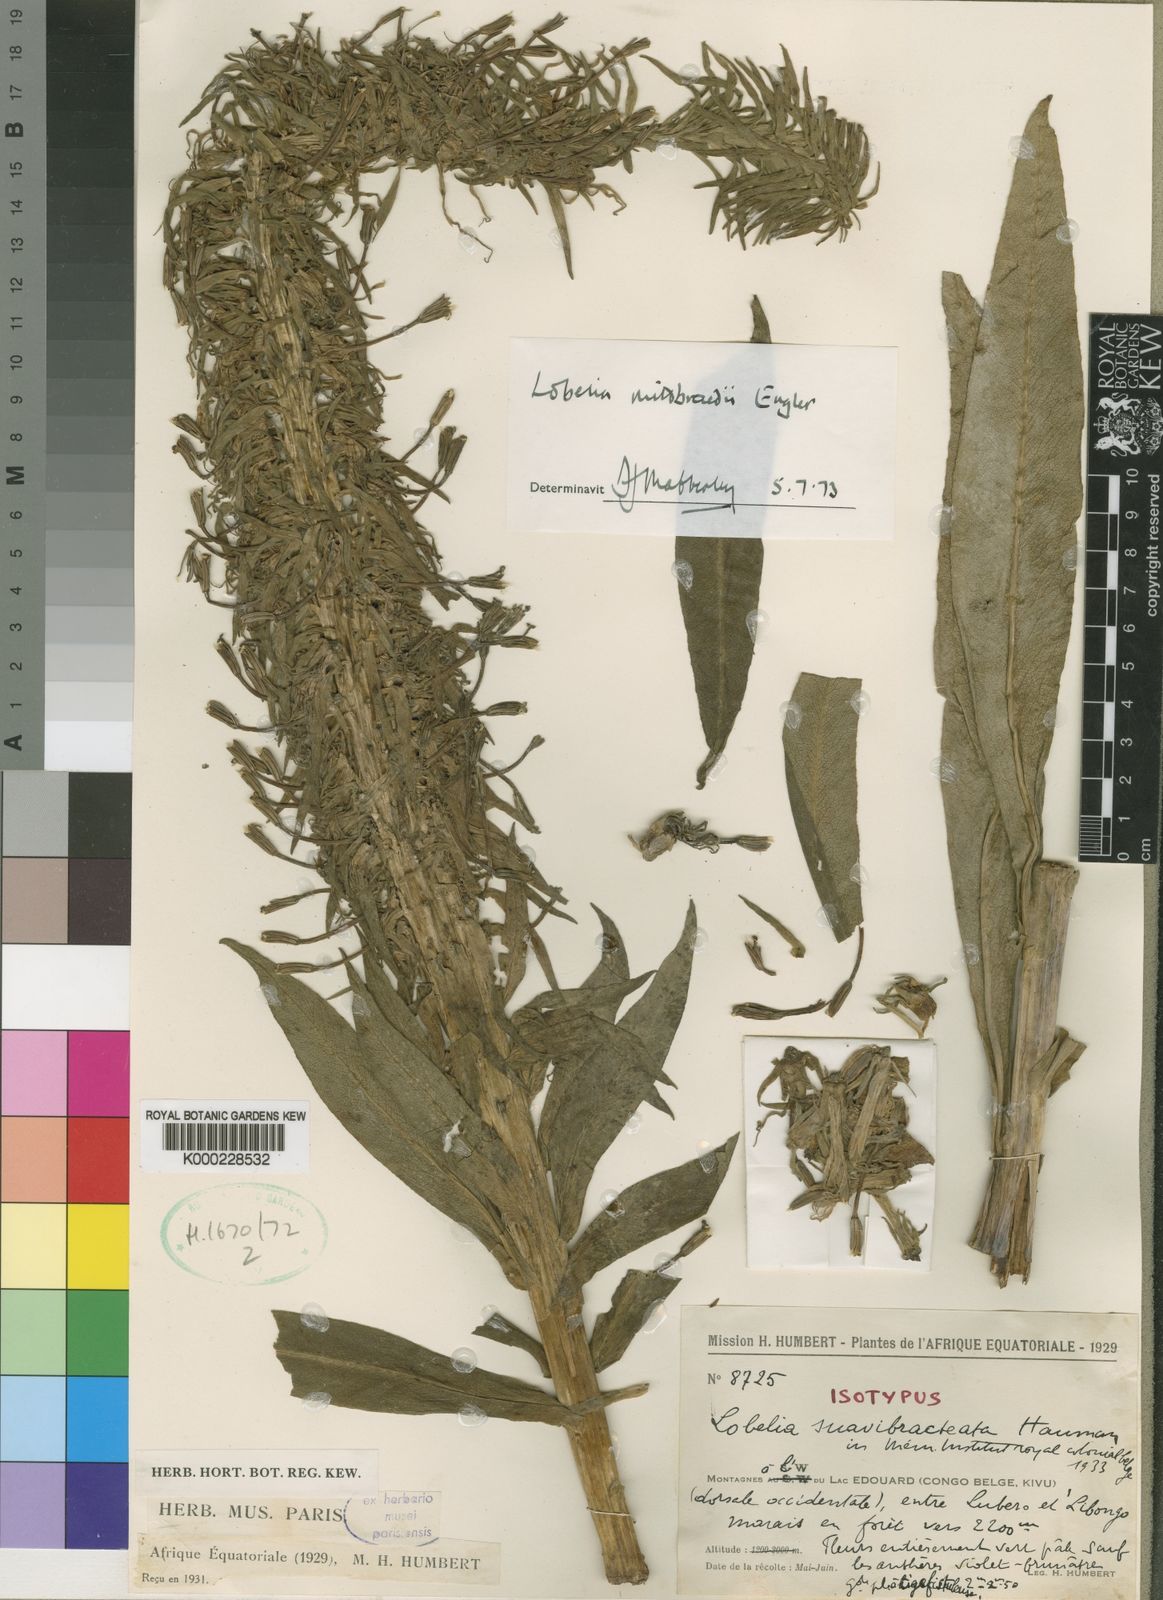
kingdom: Plantae
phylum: Tracheophyta
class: Magnoliopsida
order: Asterales
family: Campanulaceae
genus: Lobelia
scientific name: Lobelia mildbraedii
